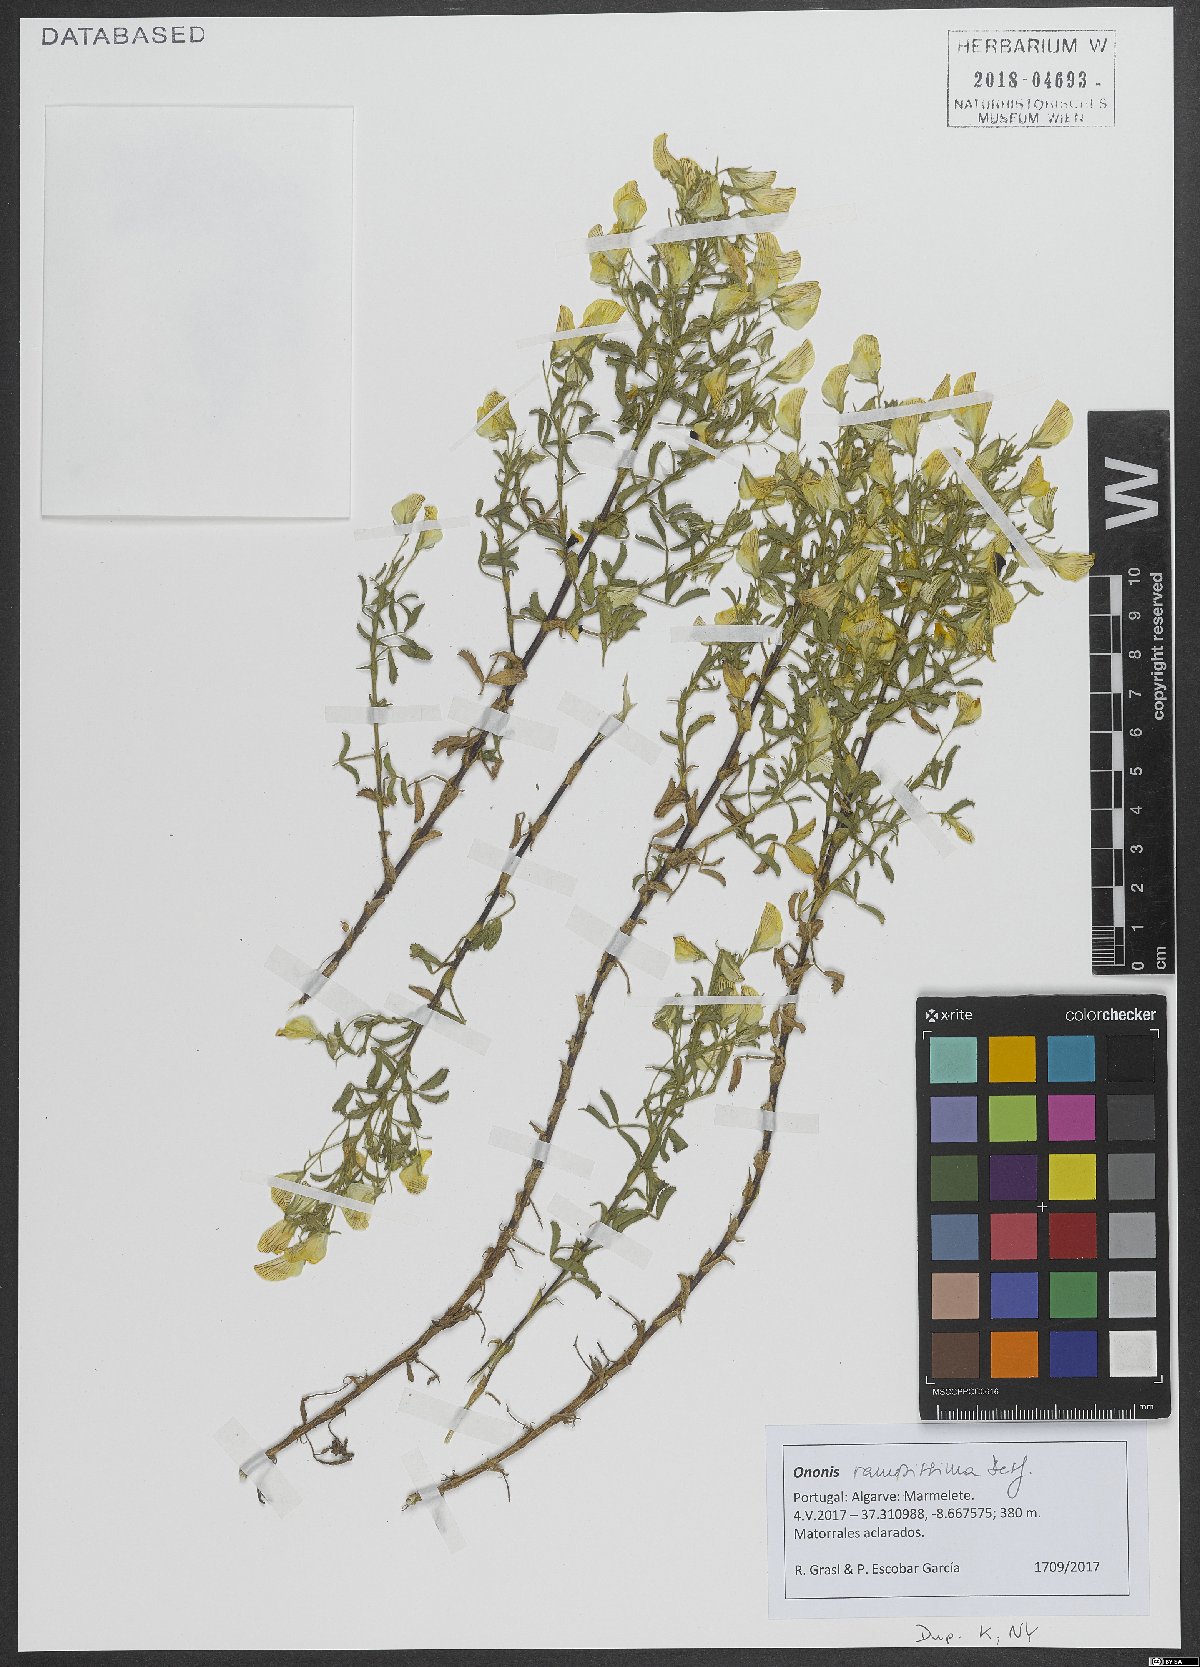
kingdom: Plantae
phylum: Tracheophyta
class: Magnoliopsida
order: Fabales
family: Fabaceae
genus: Ononis
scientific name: Ononis ramosissima
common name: Bush restharrow
